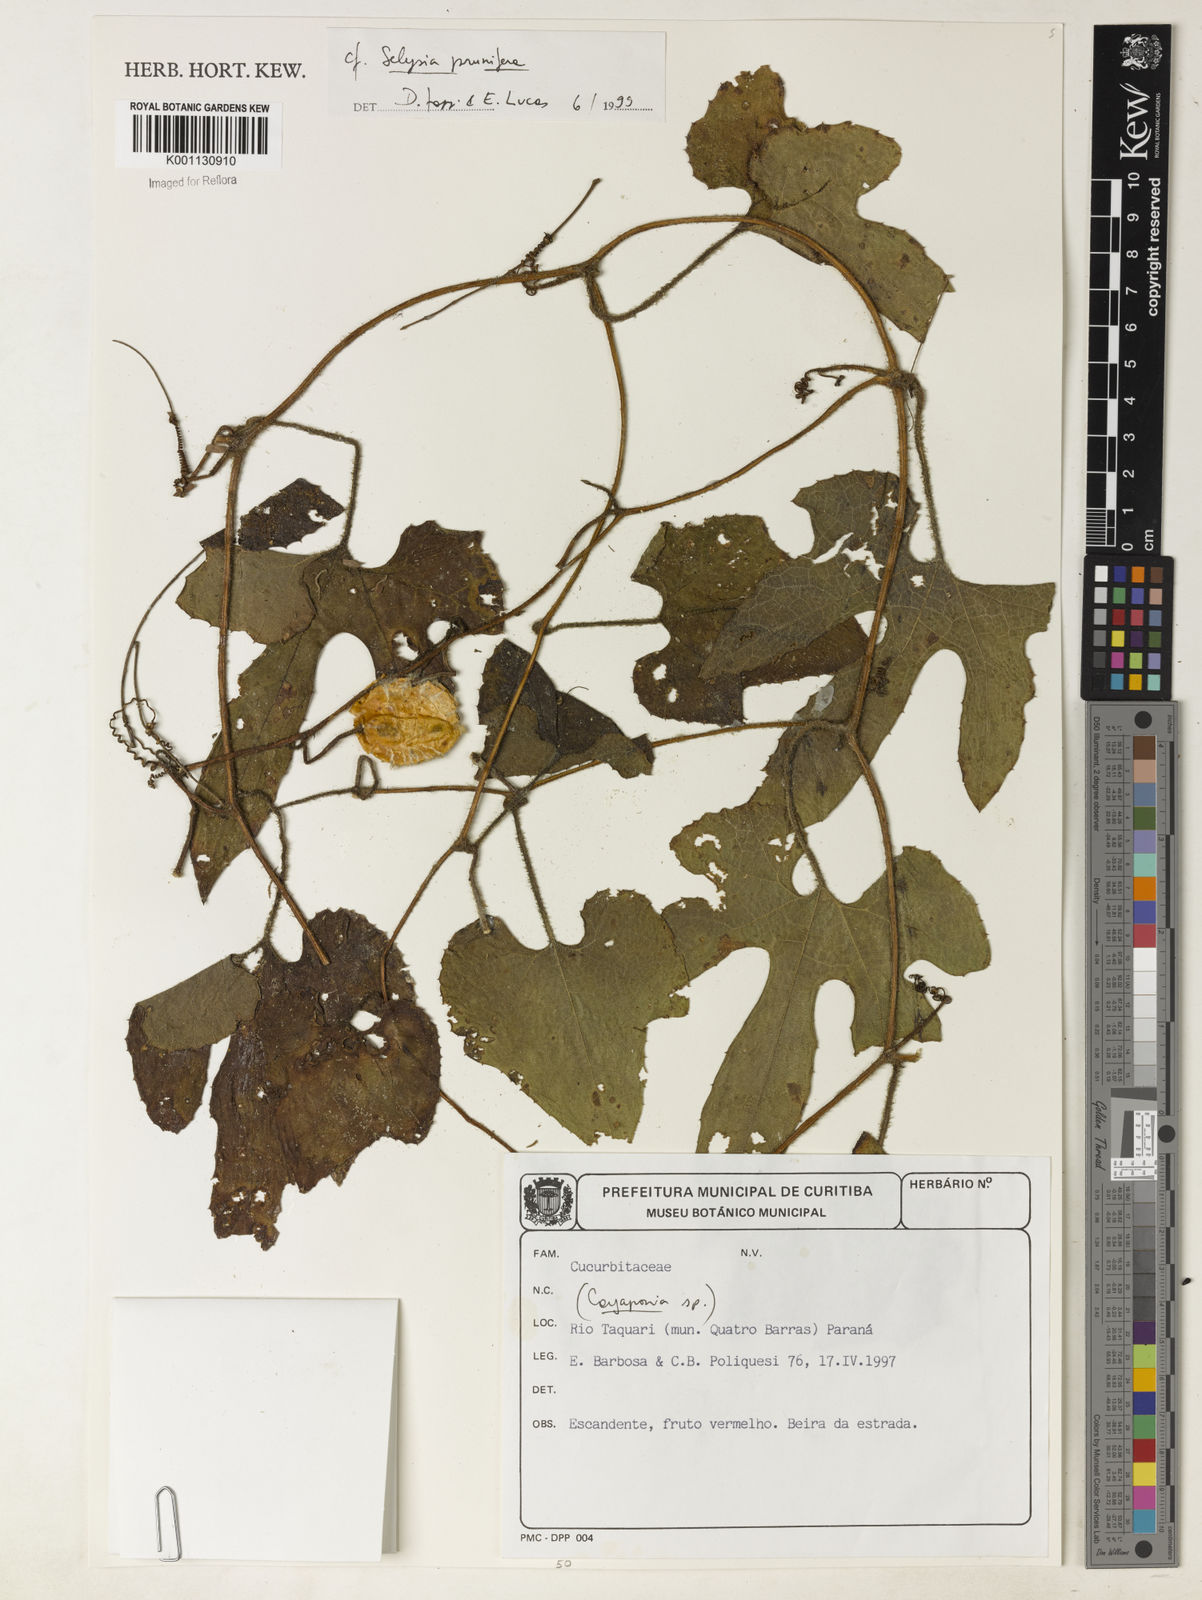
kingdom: Plantae
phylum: Tracheophyta
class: Magnoliopsida
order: Cucurbitales
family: Cucurbitaceae
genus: Cayaponia
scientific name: Cayaponia prunifera
